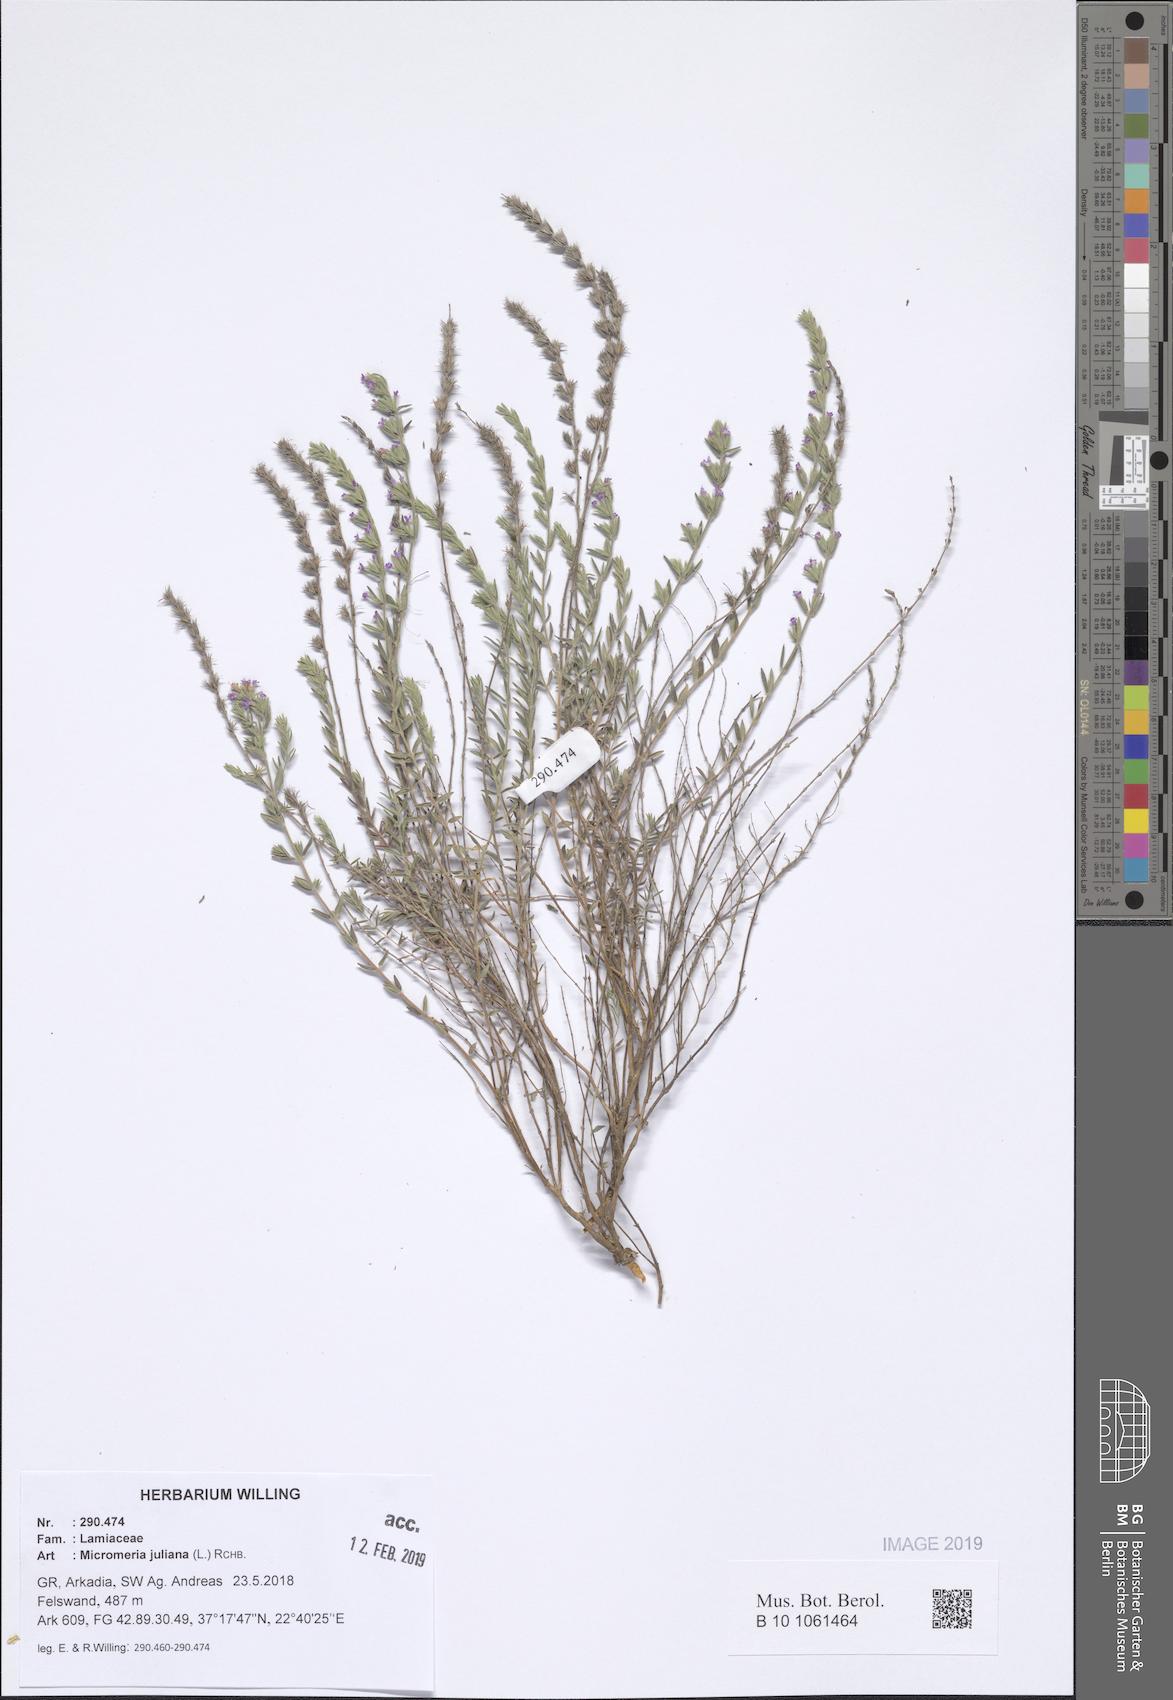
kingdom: Plantae
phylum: Tracheophyta
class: Magnoliopsida
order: Lamiales
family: Lamiaceae
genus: Micromeria
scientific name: Micromeria juliana
